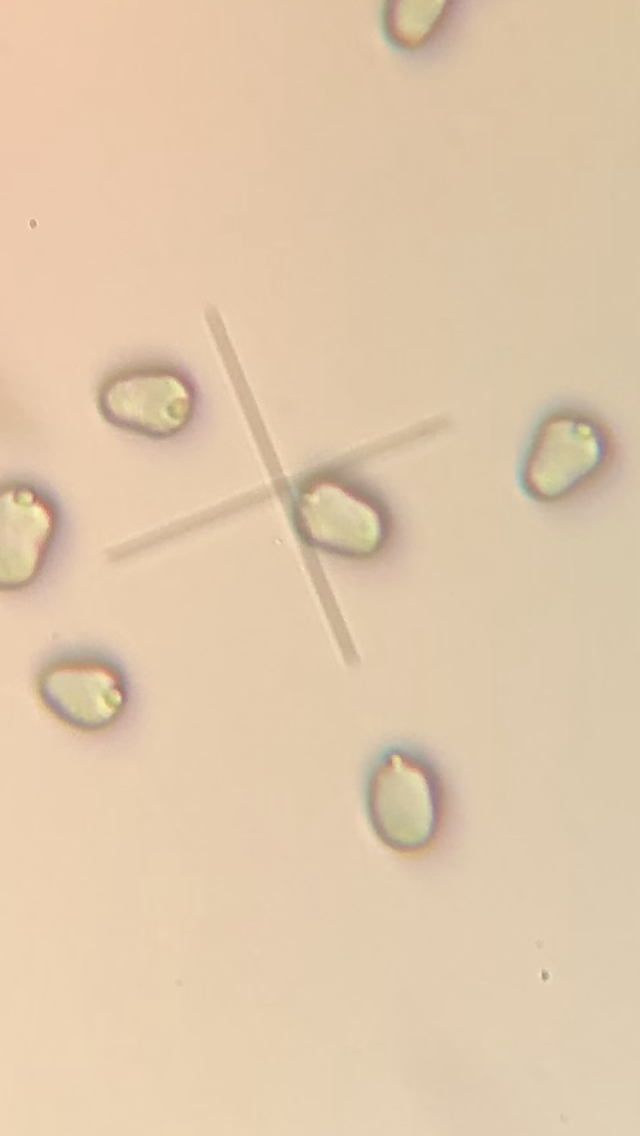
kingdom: Fungi
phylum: Basidiomycota
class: Agaricomycetes
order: Agaricales
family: Hygrophoraceae
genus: Hygrocybe
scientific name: Hygrocybe miniata
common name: mønje-vokshat
